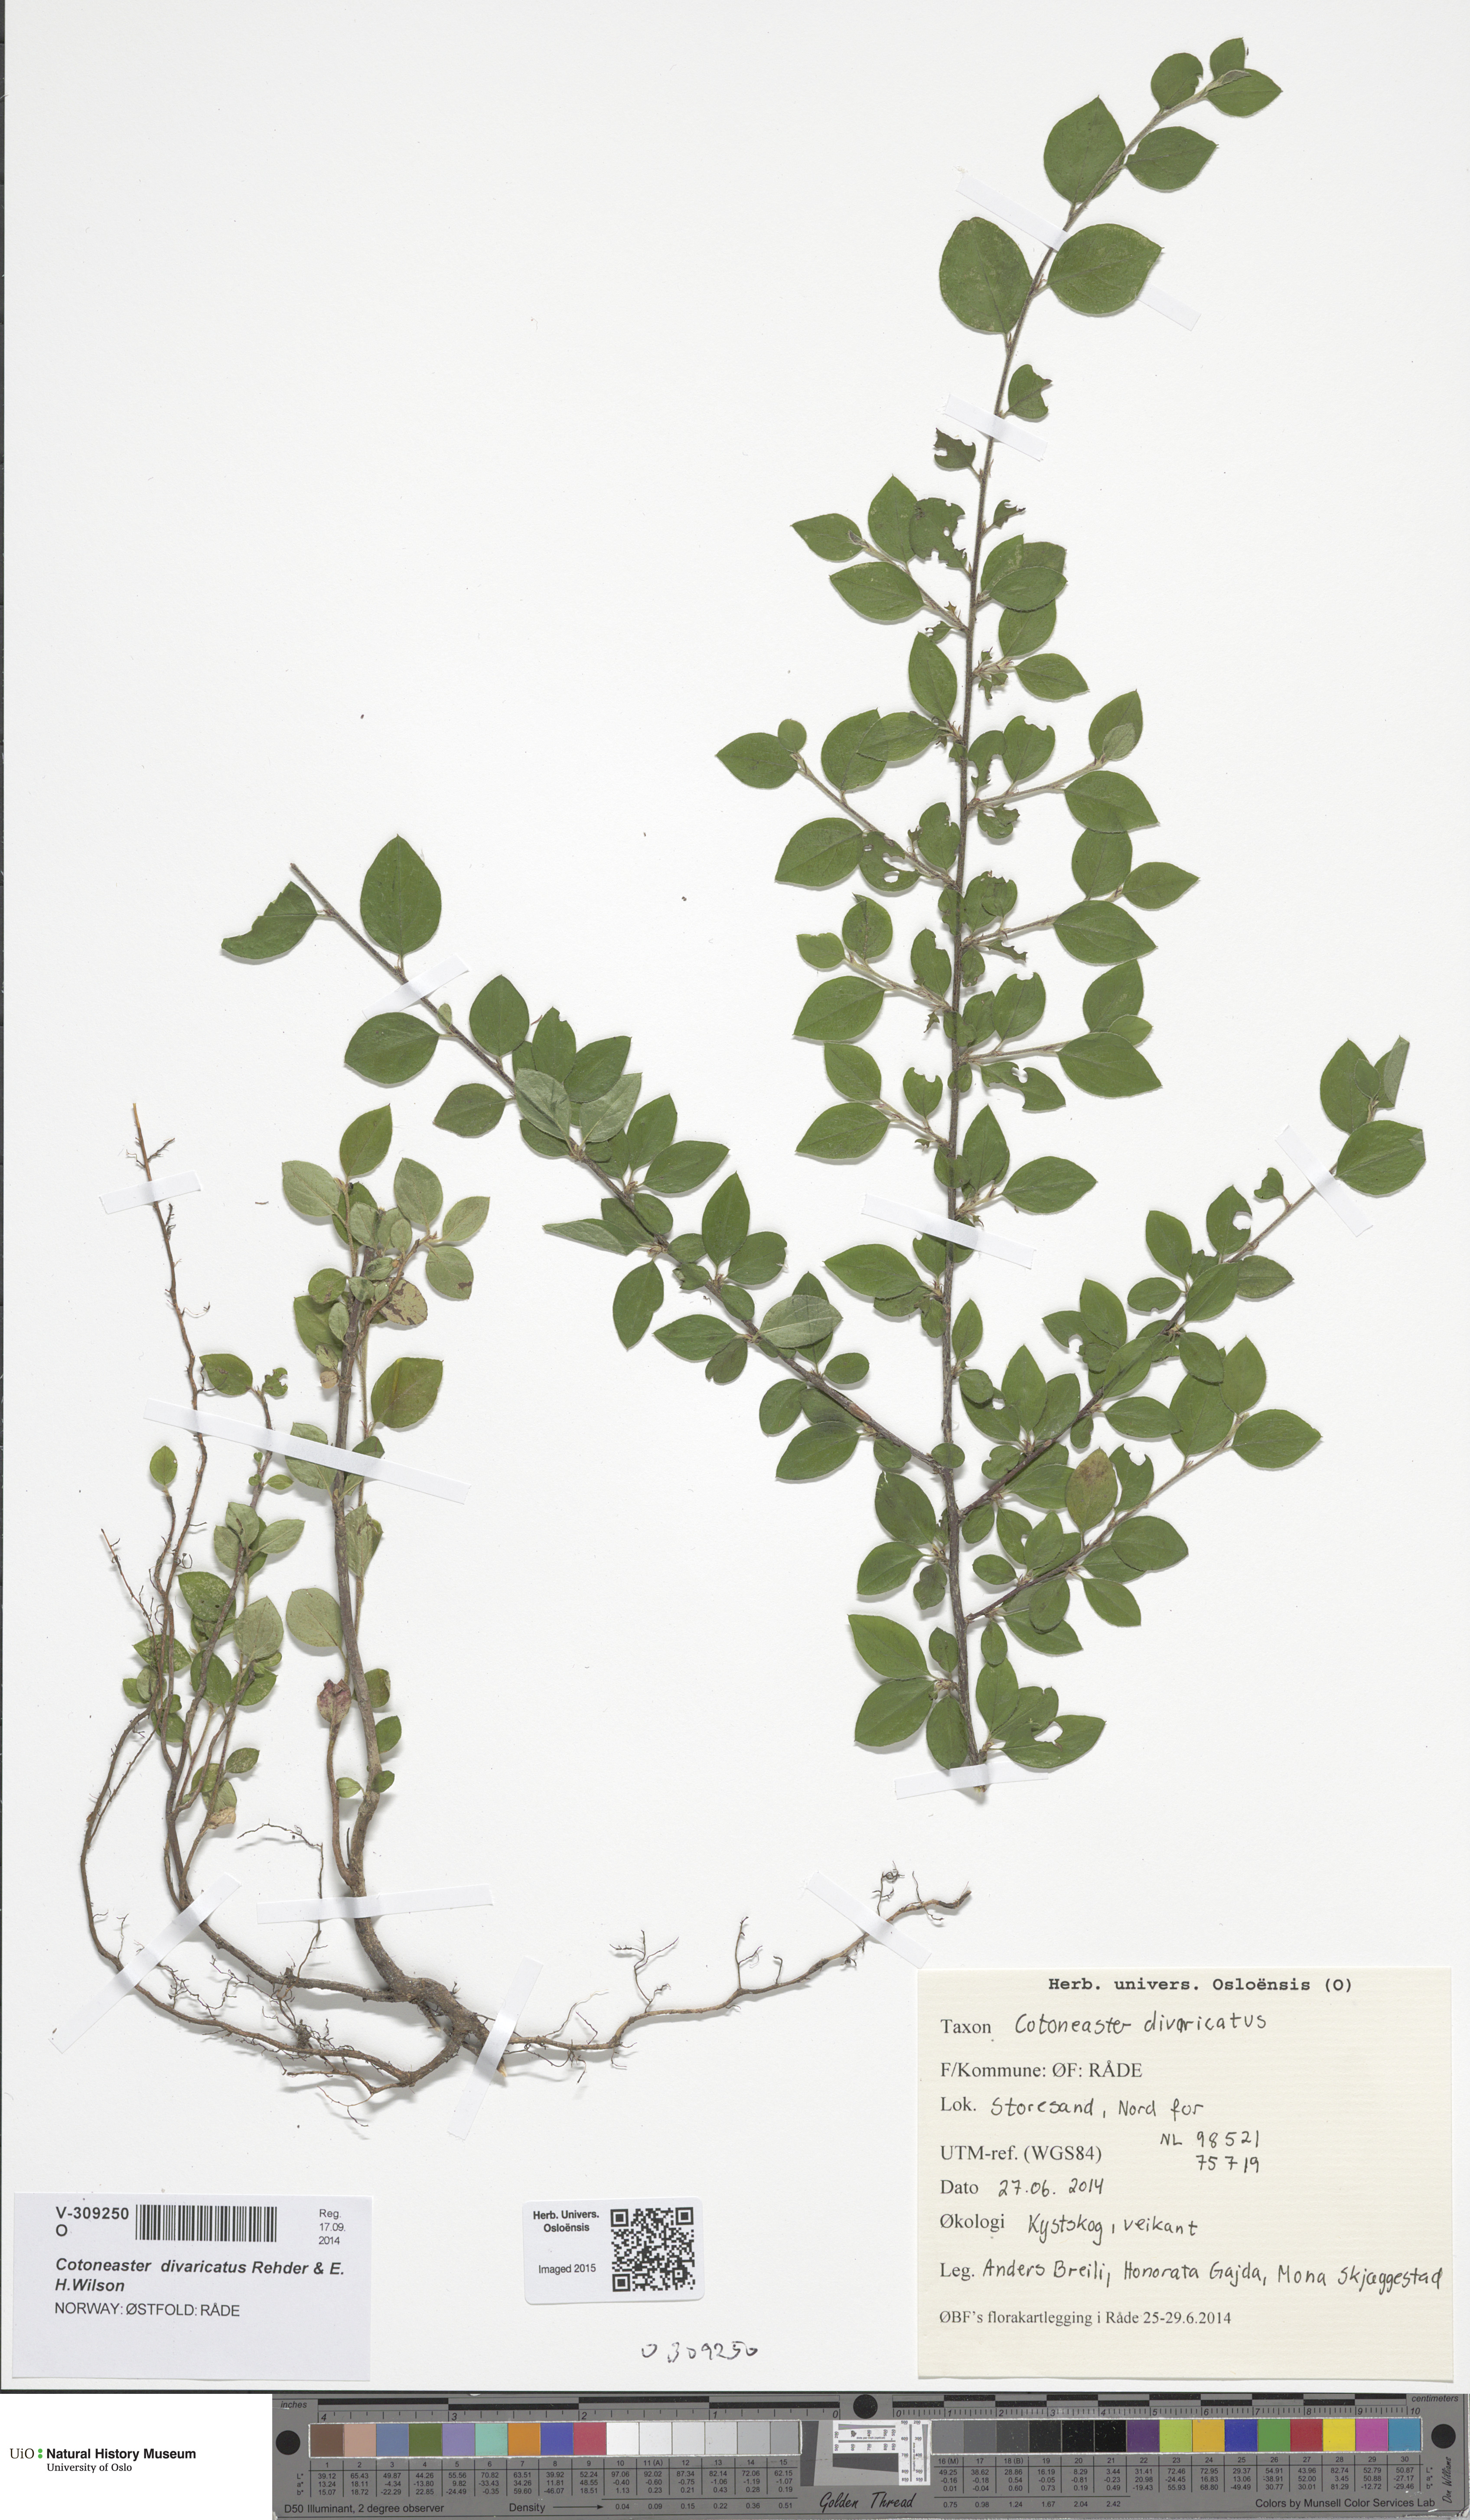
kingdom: Plantae
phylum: Tracheophyta
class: Magnoliopsida
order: Rosales
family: Rosaceae
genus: Cotoneaster
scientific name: Cotoneaster divaricatus
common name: Spreading cotoneaster
